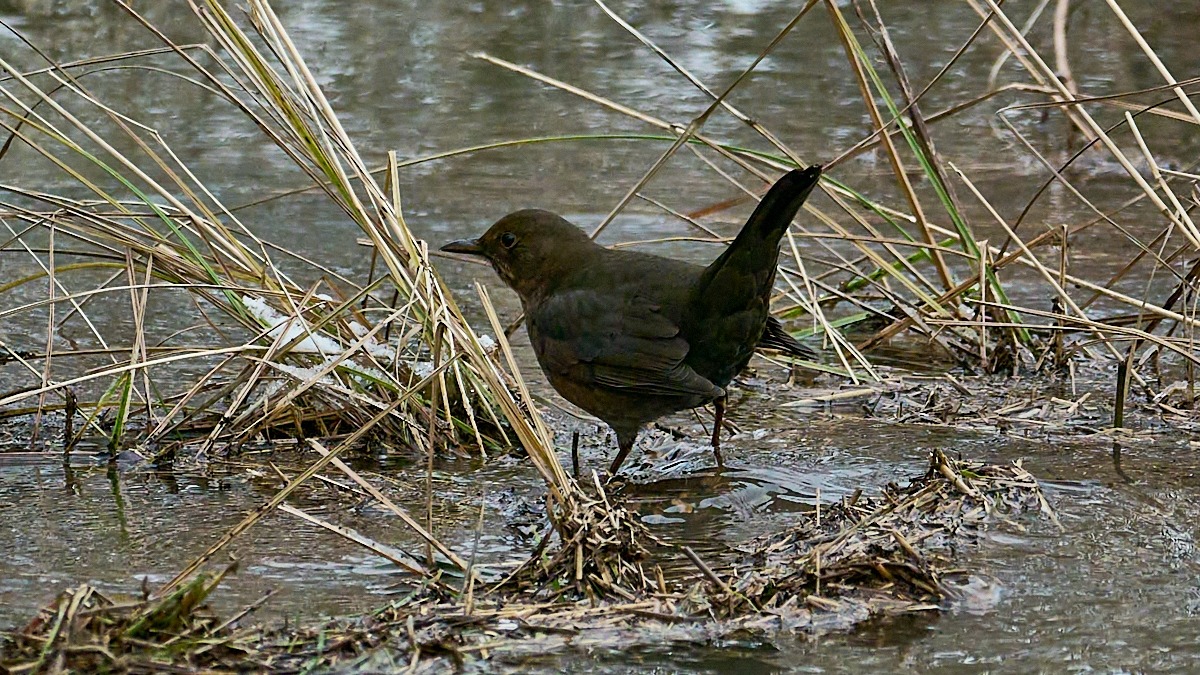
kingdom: Animalia
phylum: Chordata
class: Aves
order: Passeriformes
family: Turdidae
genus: Turdus
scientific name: Turdus merula
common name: Solsort
